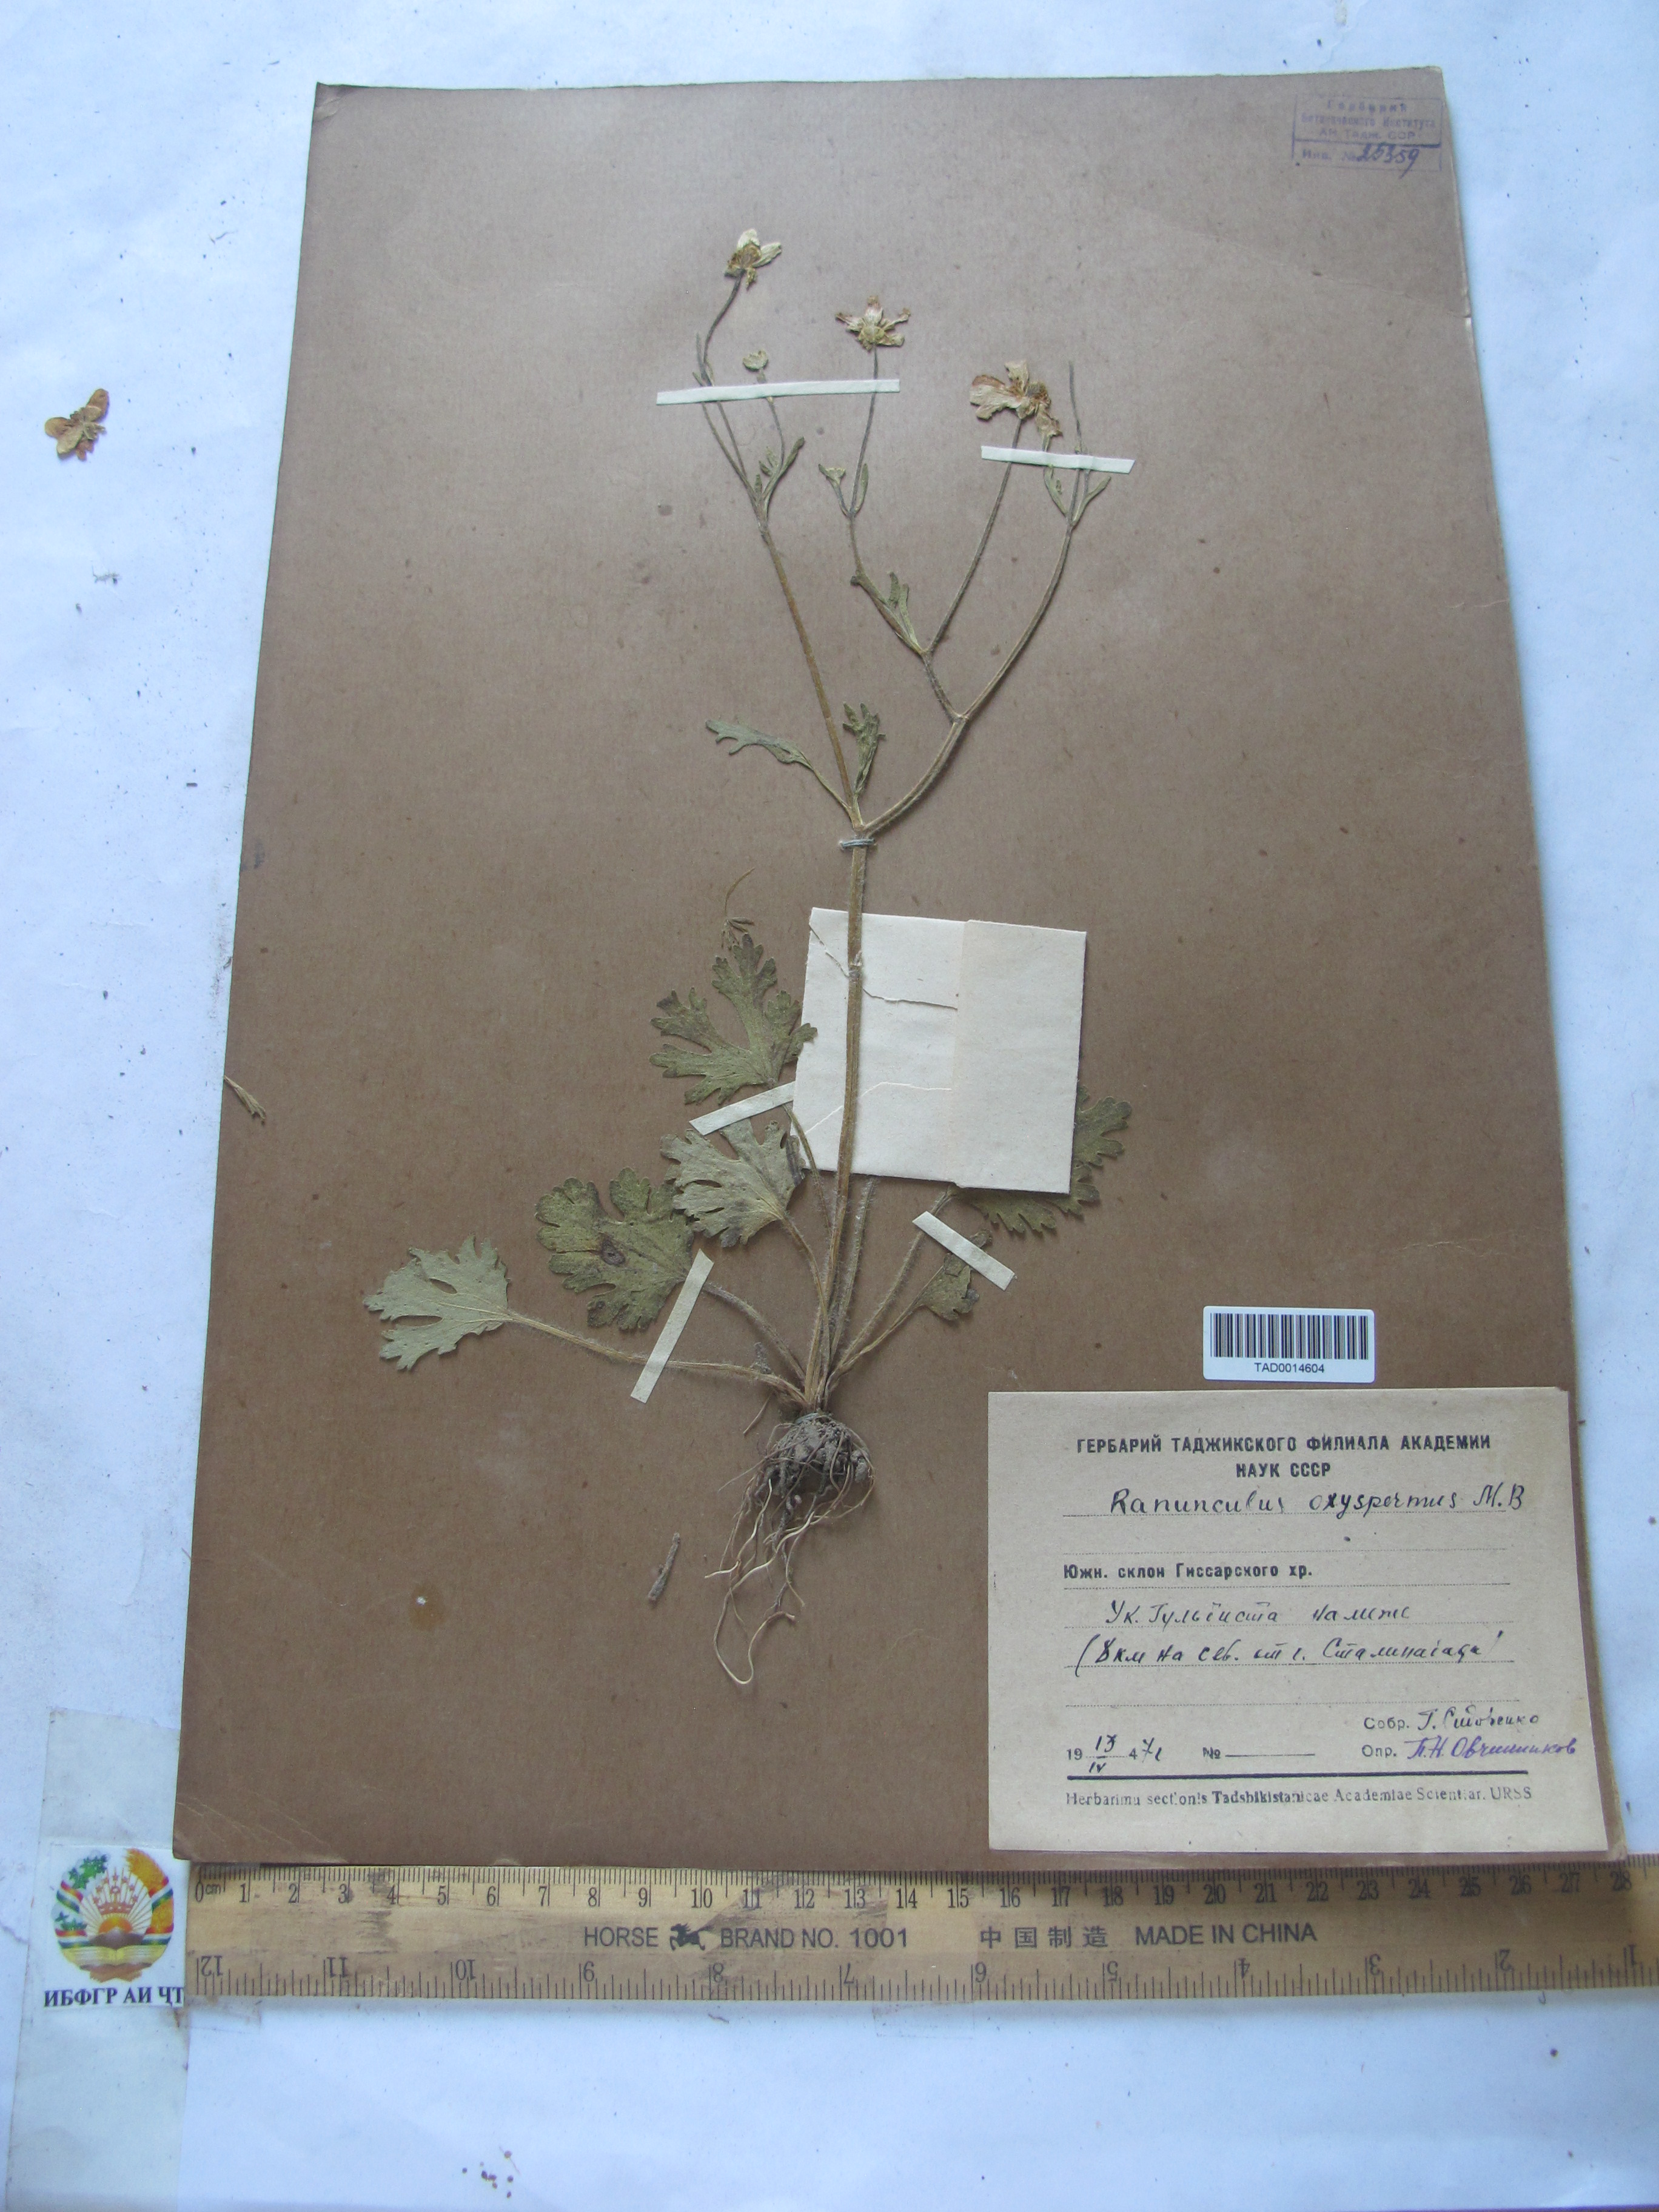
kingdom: Plantae
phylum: Tracheophyta
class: Magnoliopsida
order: Ranunculales
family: Ranunculaceae
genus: Ranunculus
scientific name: Ranunculus oxyspermus
